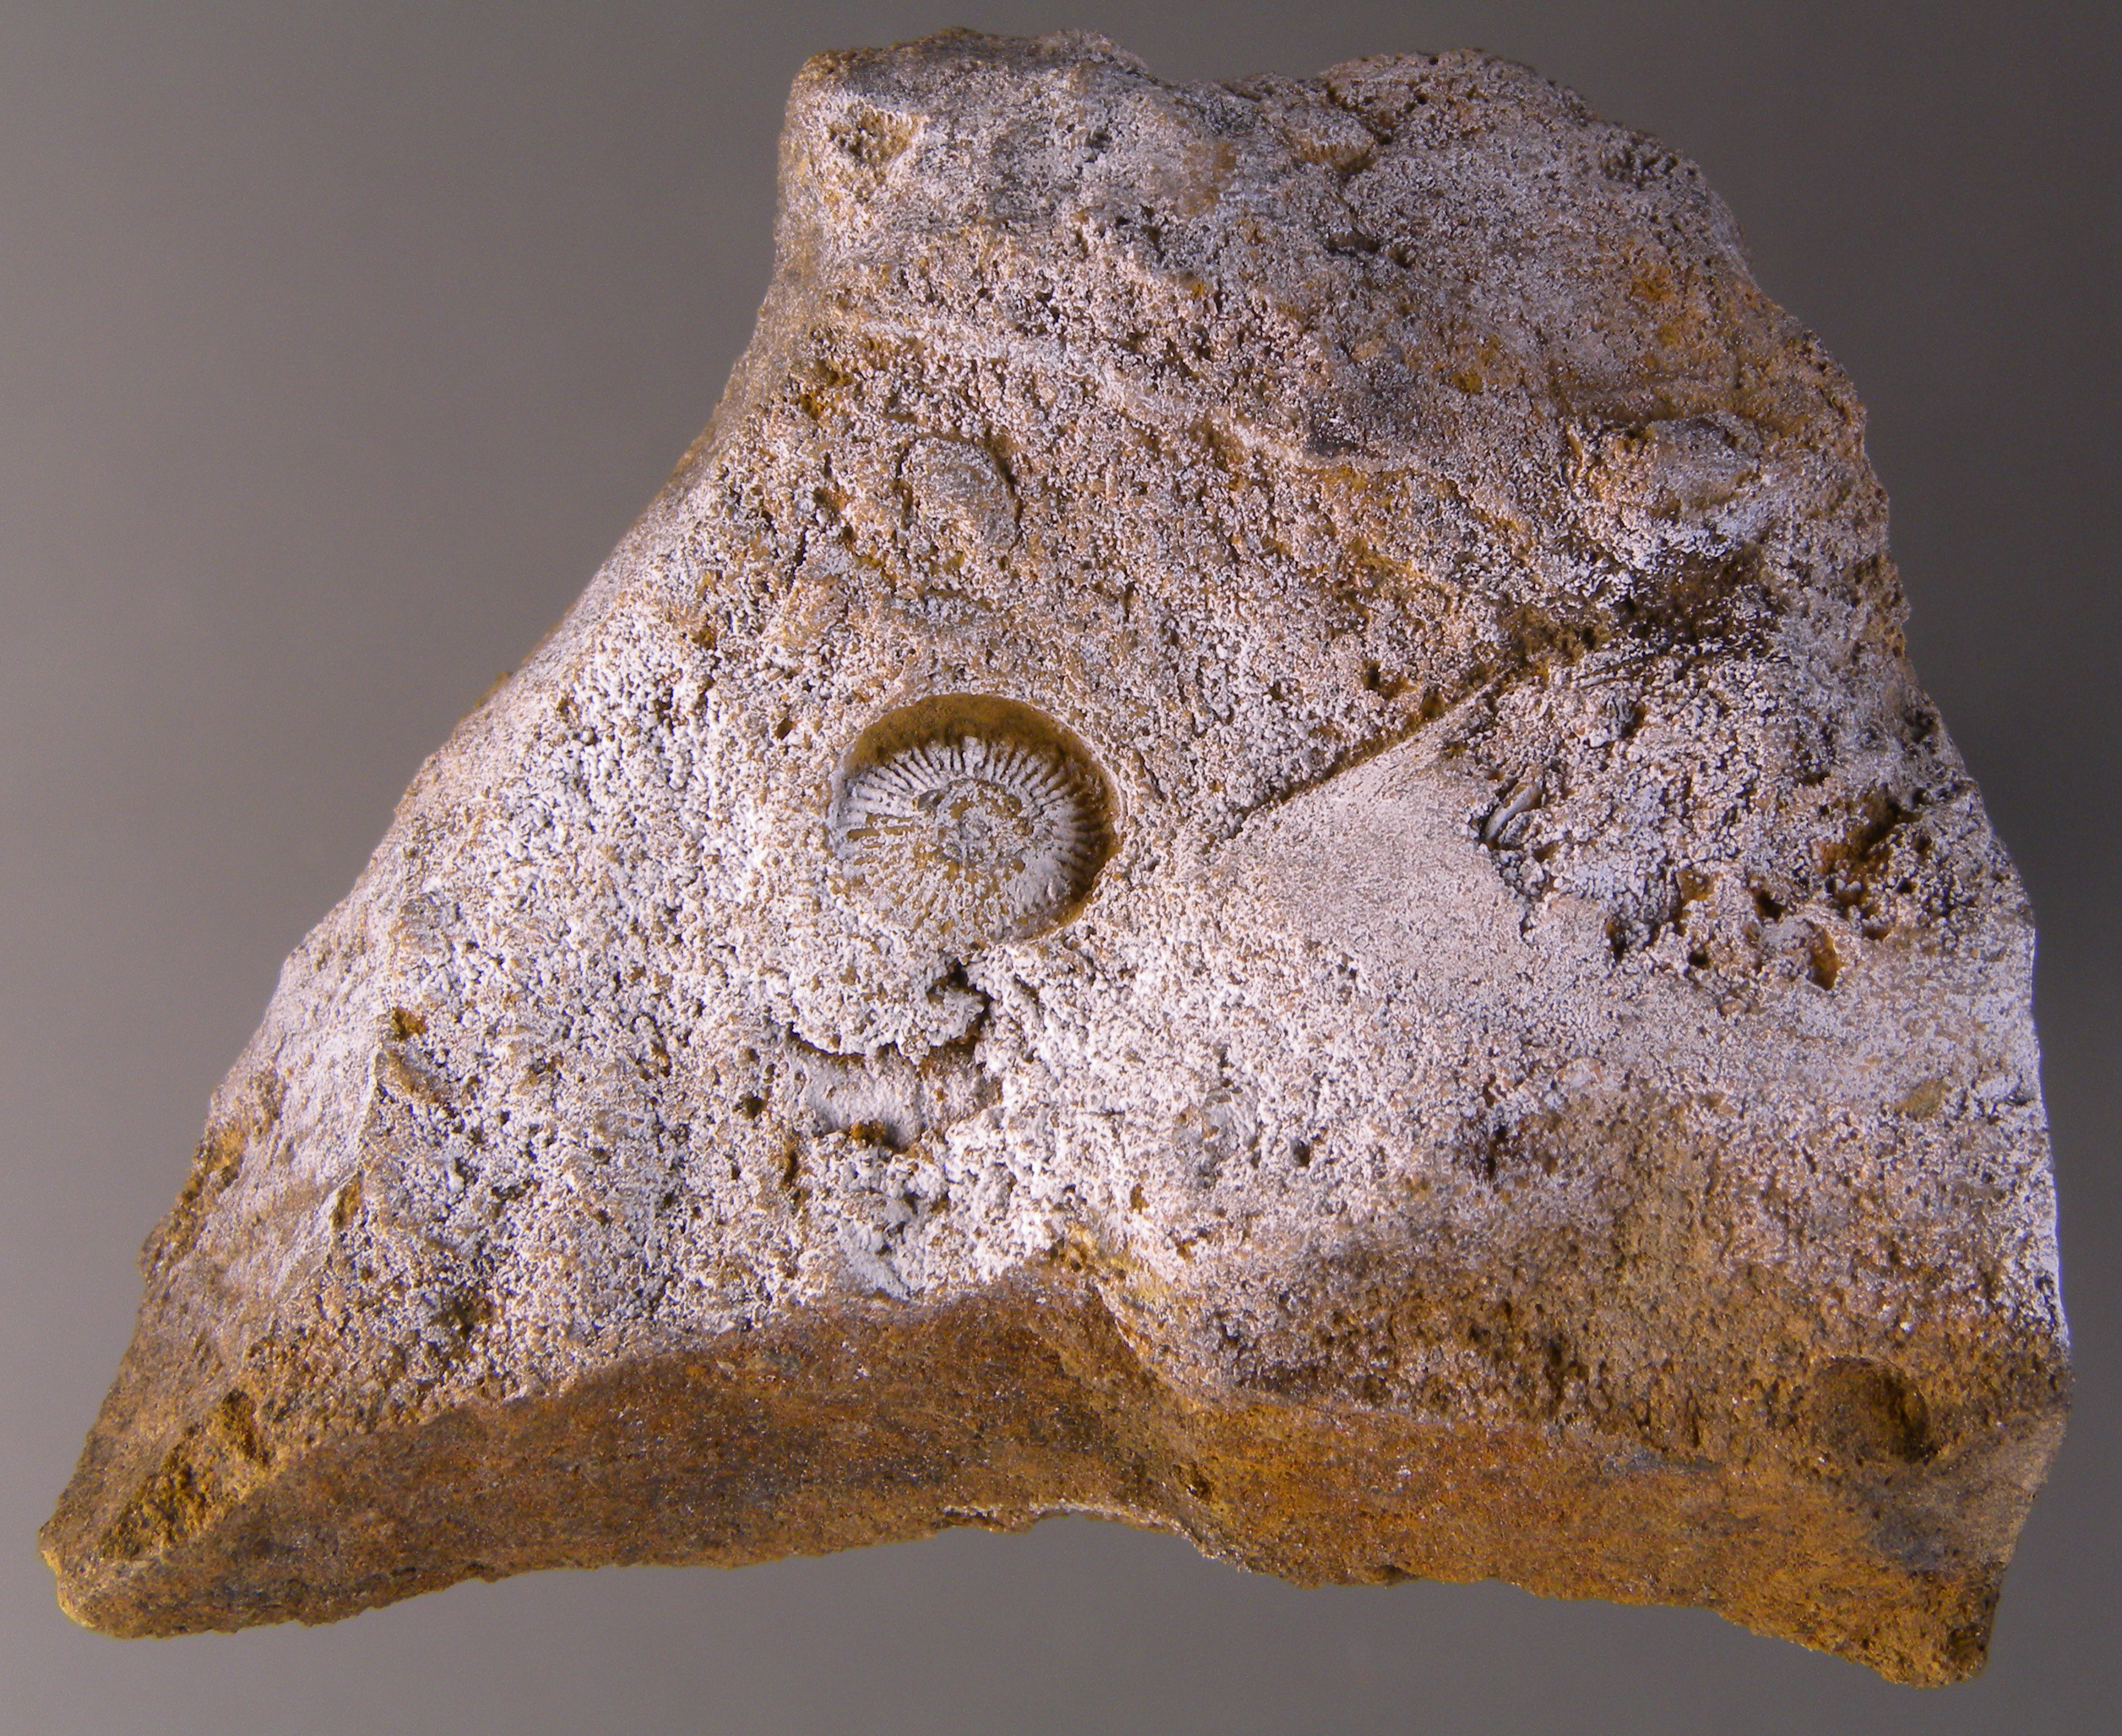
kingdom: Animalia
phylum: Echinodermata
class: Crinoidea
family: Melocrinitidae
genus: Ctenocrinus
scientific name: Ctenocrinus
